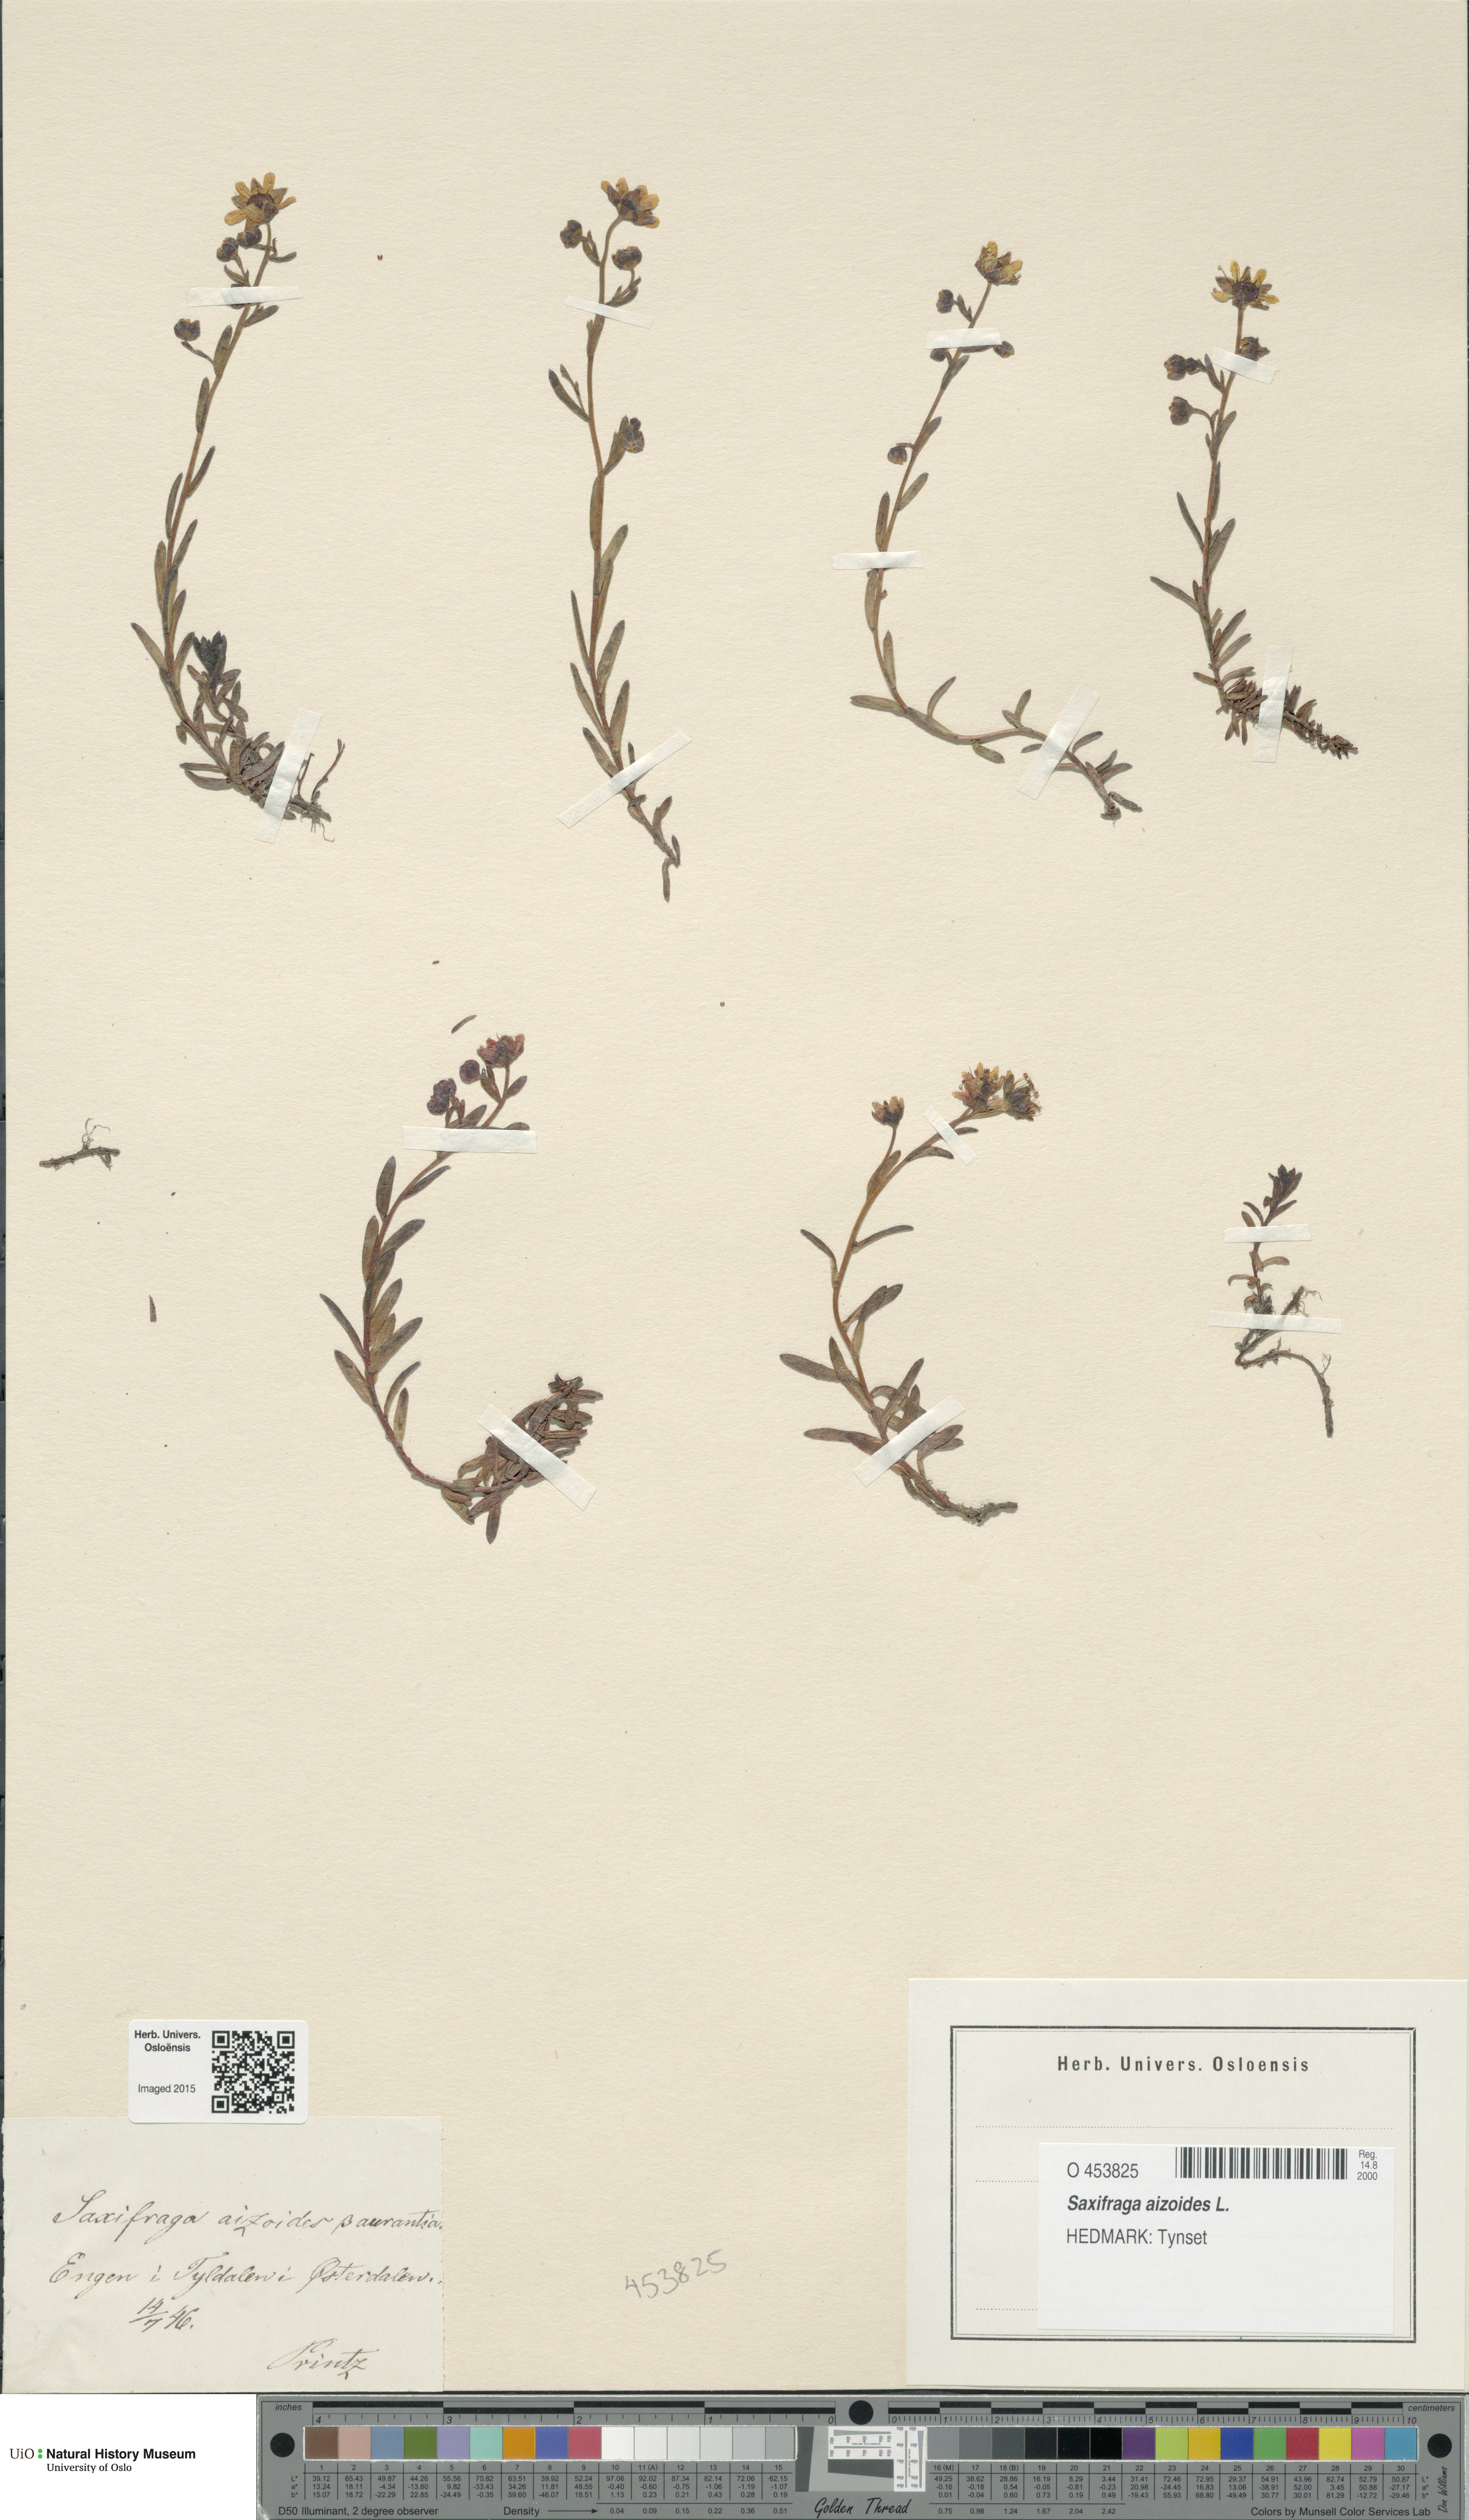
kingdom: Plantae
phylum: Tracheophyta
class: Magnoliopsida
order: Saxifragales
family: Saxifragaceae
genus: Saxifraga
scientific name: Saxifraga aizoides
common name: Yellow mountain saxifrage
